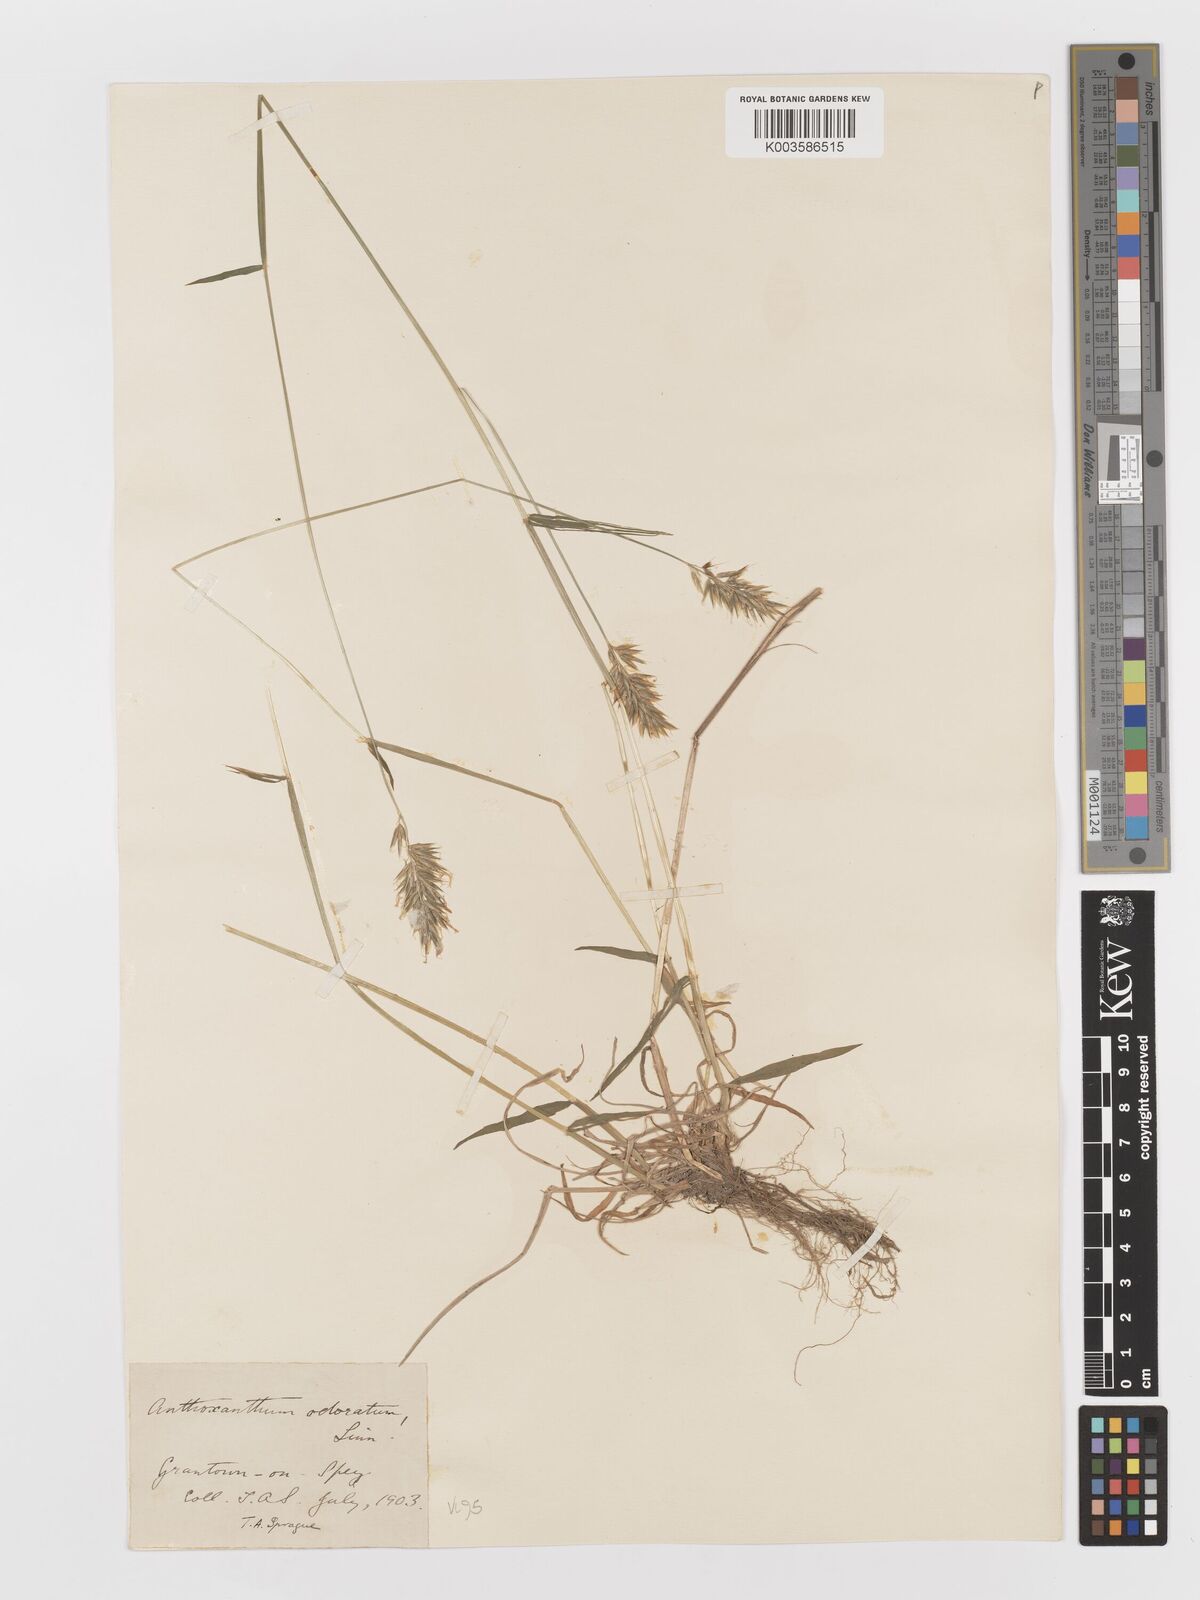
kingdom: Plantae
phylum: Tracheophyta
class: Liliopsida
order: Poales
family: Poaceae
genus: Anthoxanthum
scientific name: Anthoxanthum odoratum
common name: Sweet vernalgrass
